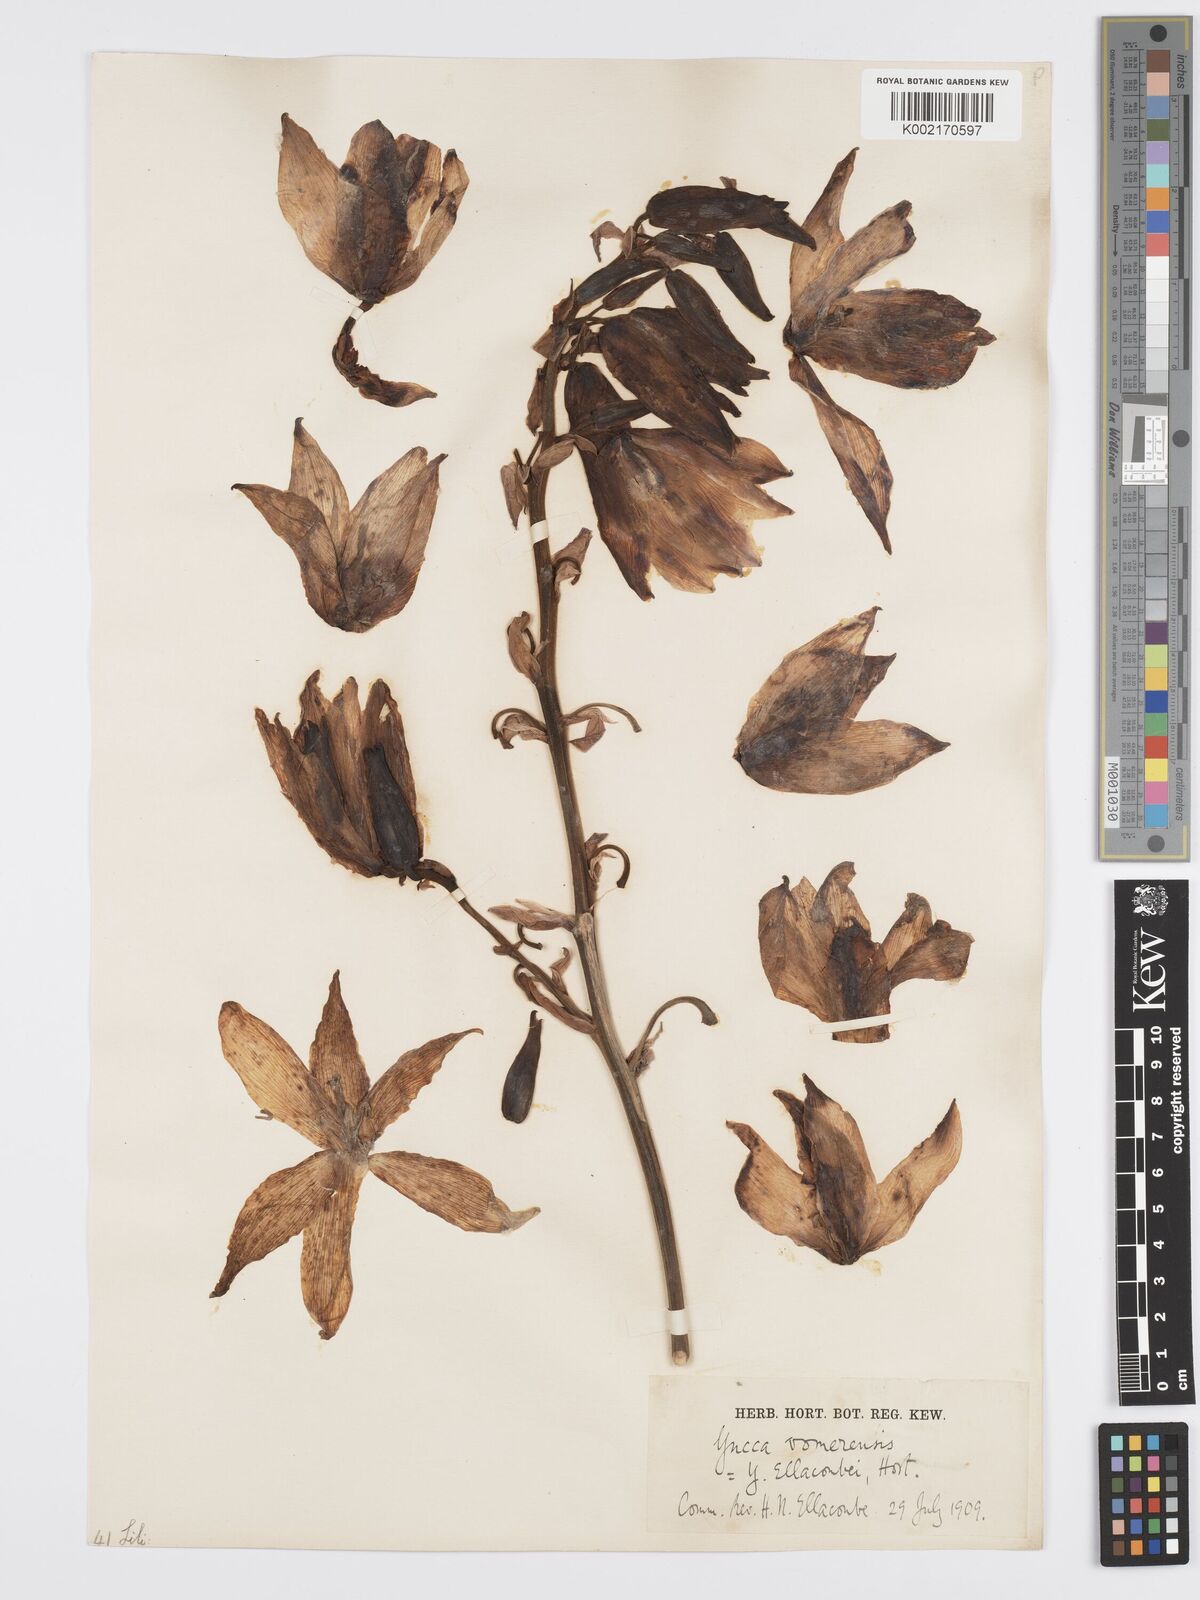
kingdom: Plantae
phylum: Tracheophyta
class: Liliopsida
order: Asparagales
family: Asparagaceae
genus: Yucca
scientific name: Yucca gloriosa
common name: Spanish-dagger
